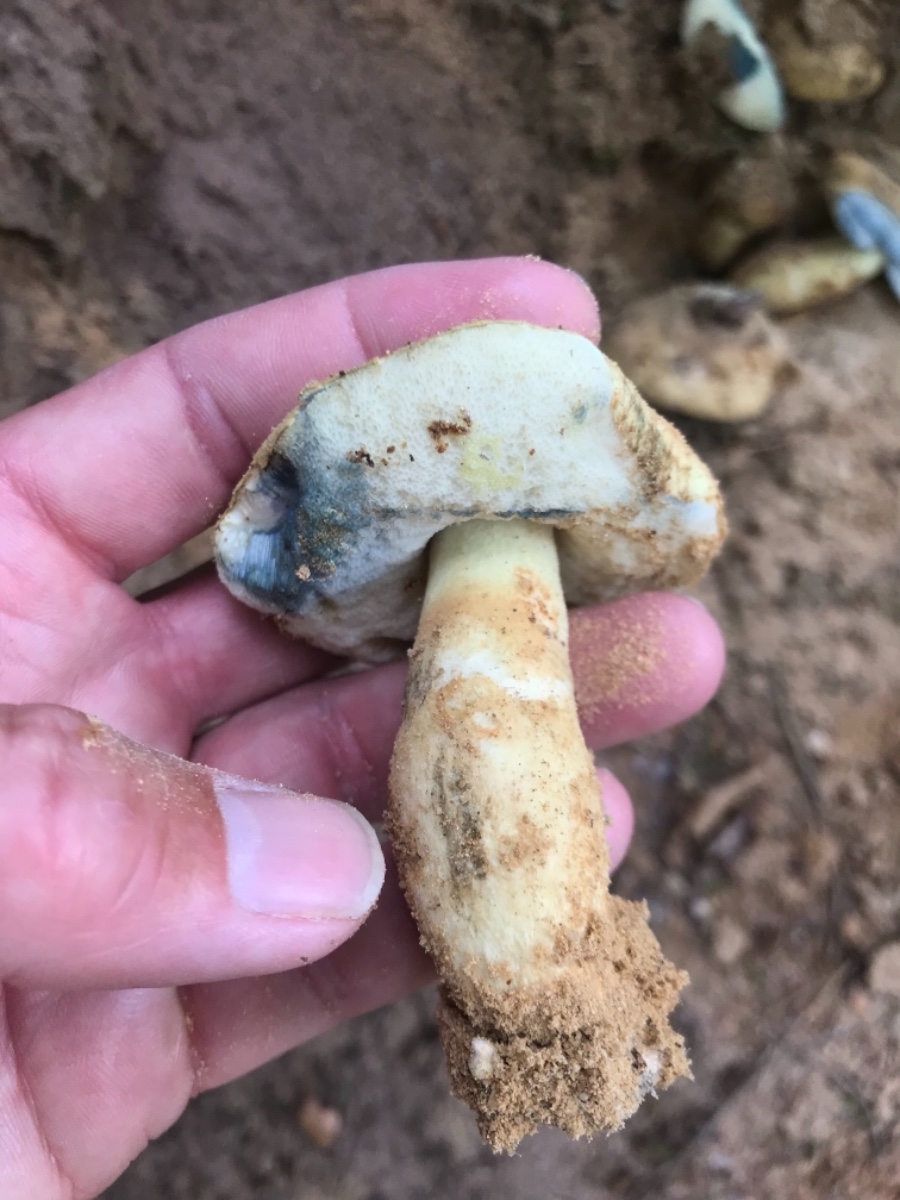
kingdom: Fungi
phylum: Basidiomycota
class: Agaricomycetes
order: Boletales
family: Gyroporaceae
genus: Gyroporus
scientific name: Gyroporus cyanescens
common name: blånende kammerrørhat
